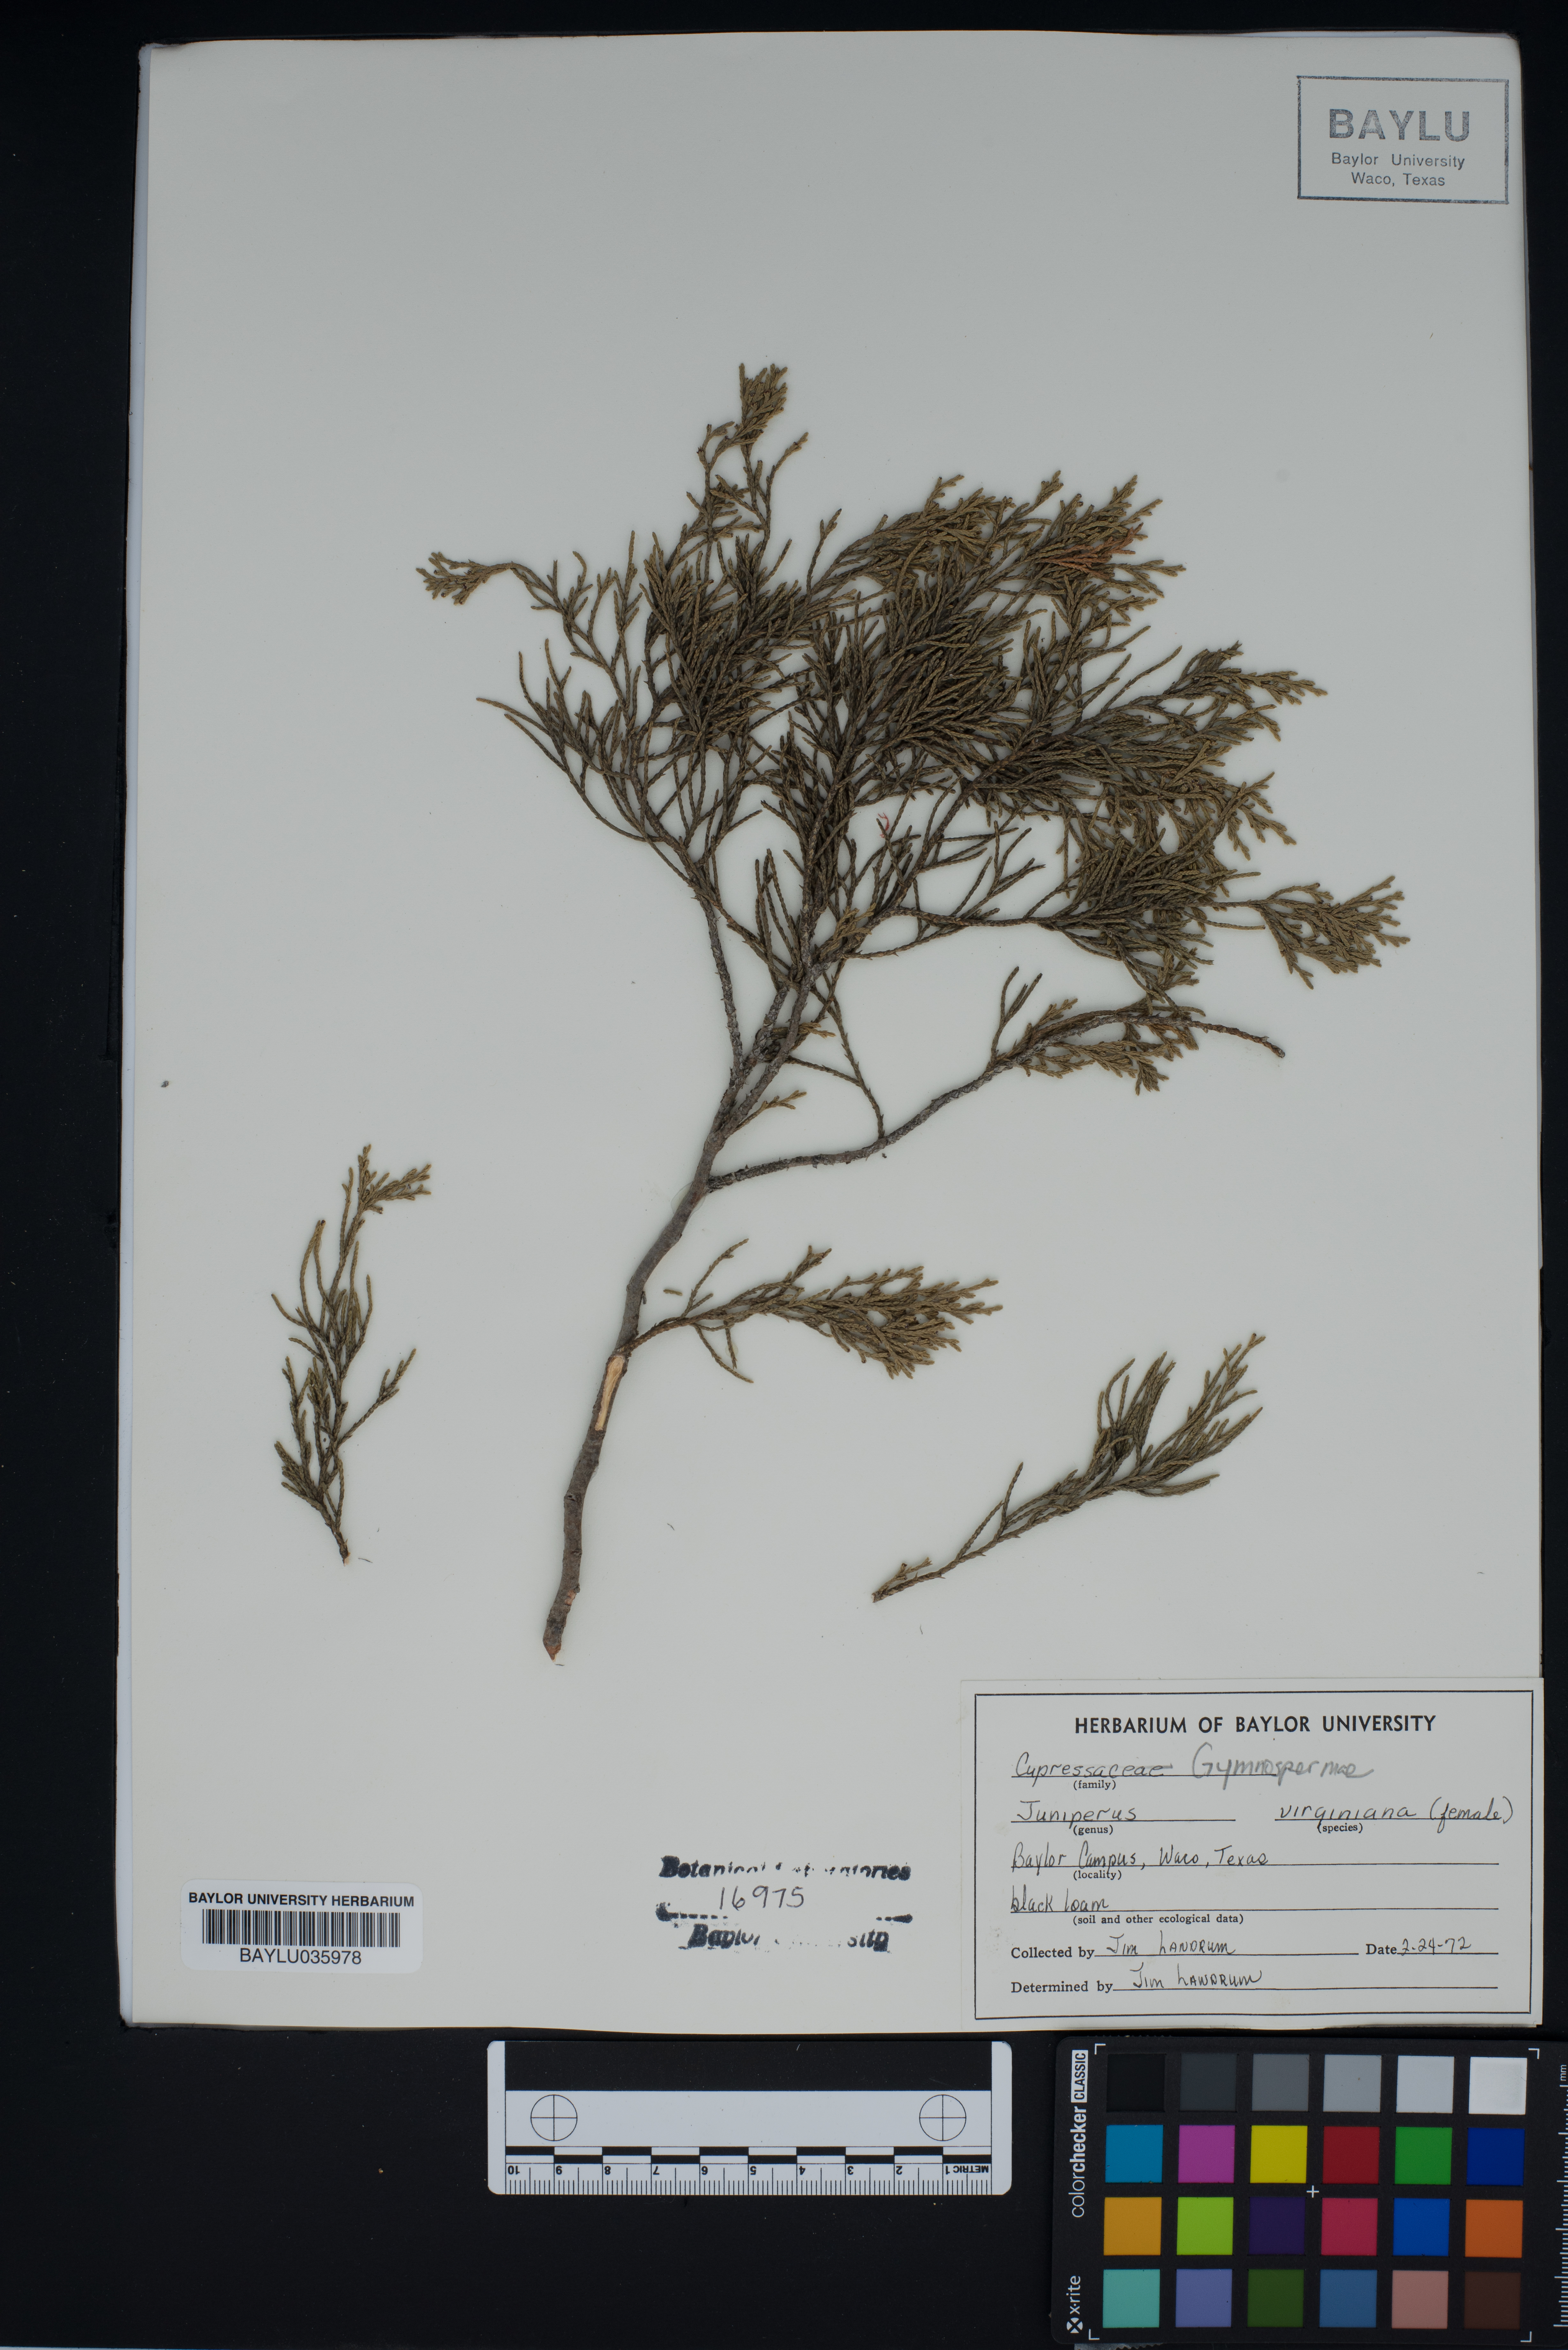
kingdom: Plantae
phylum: Tracheophyta
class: Pinopsida
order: Pinales
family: Cupressaceae
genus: Juniperus
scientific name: Juniperus virginiana
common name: Red juniper
